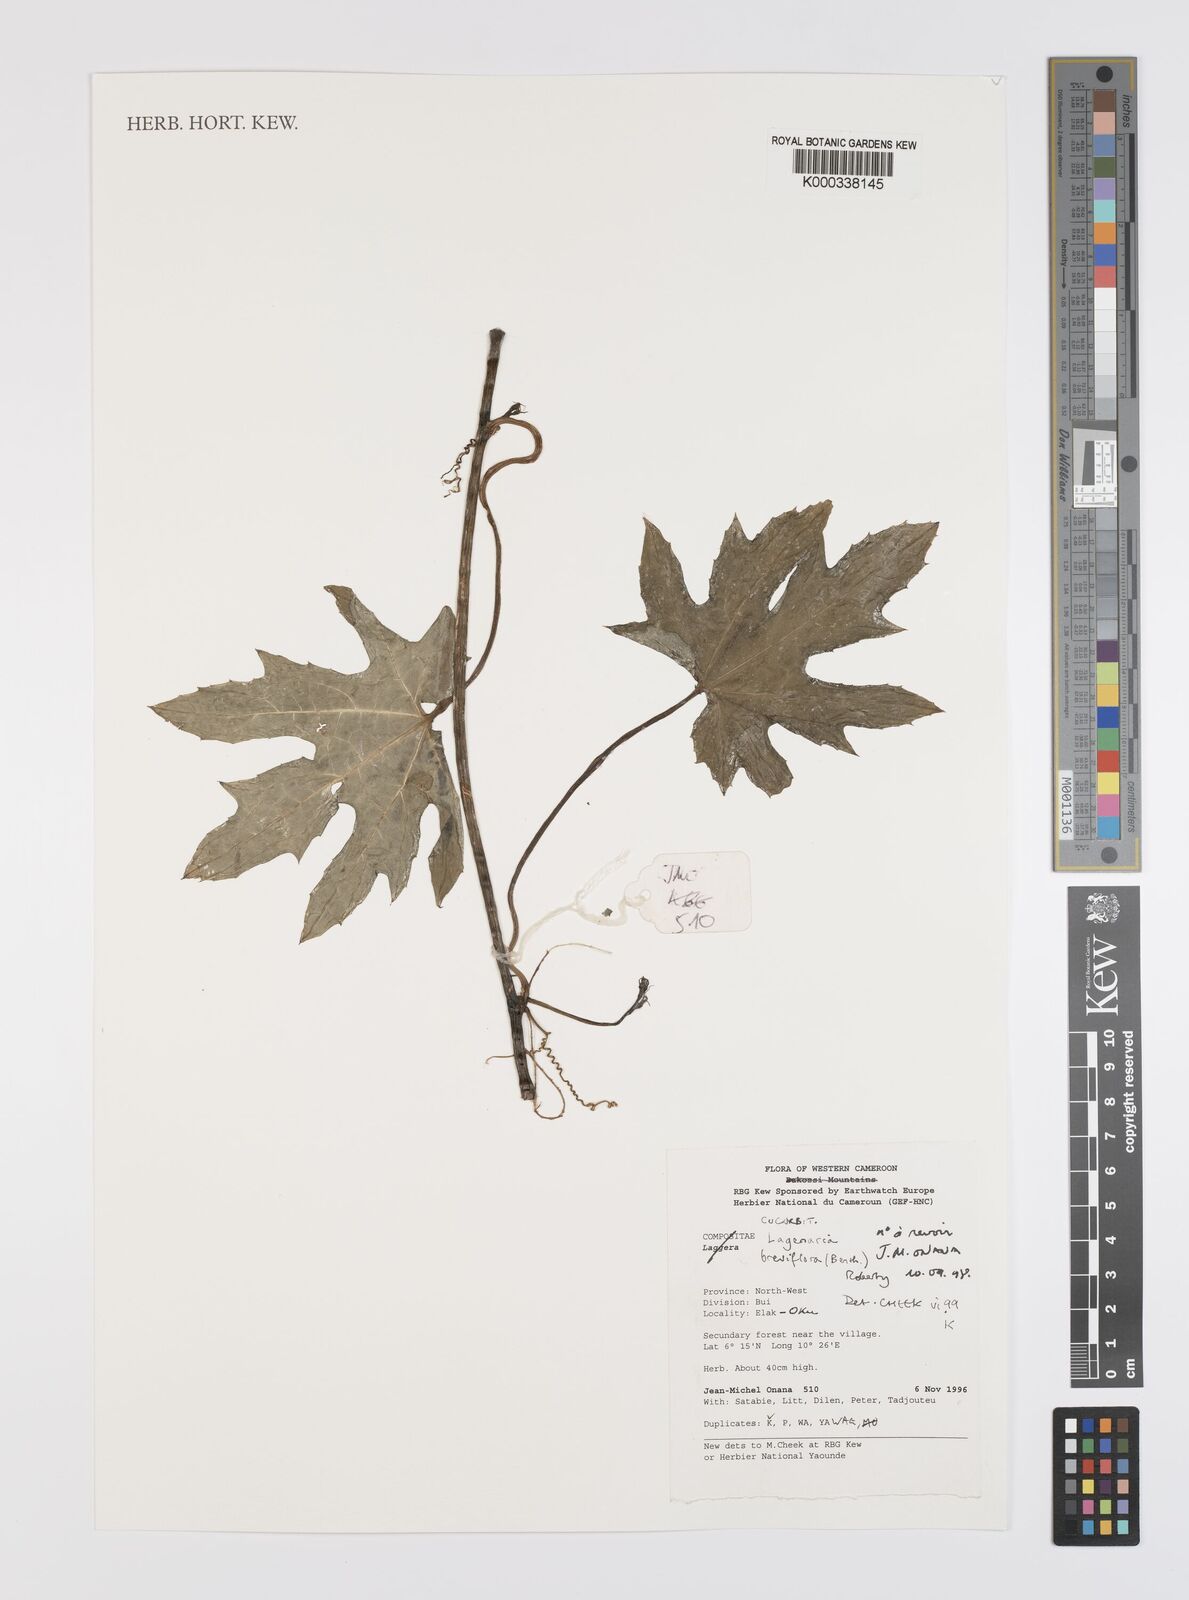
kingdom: Plantae
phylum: Tracheophyta
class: Magnoliopsida
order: Cucurbitales
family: Cucurbitaceae
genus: Lagenaria
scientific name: Lagenaria breviflora
